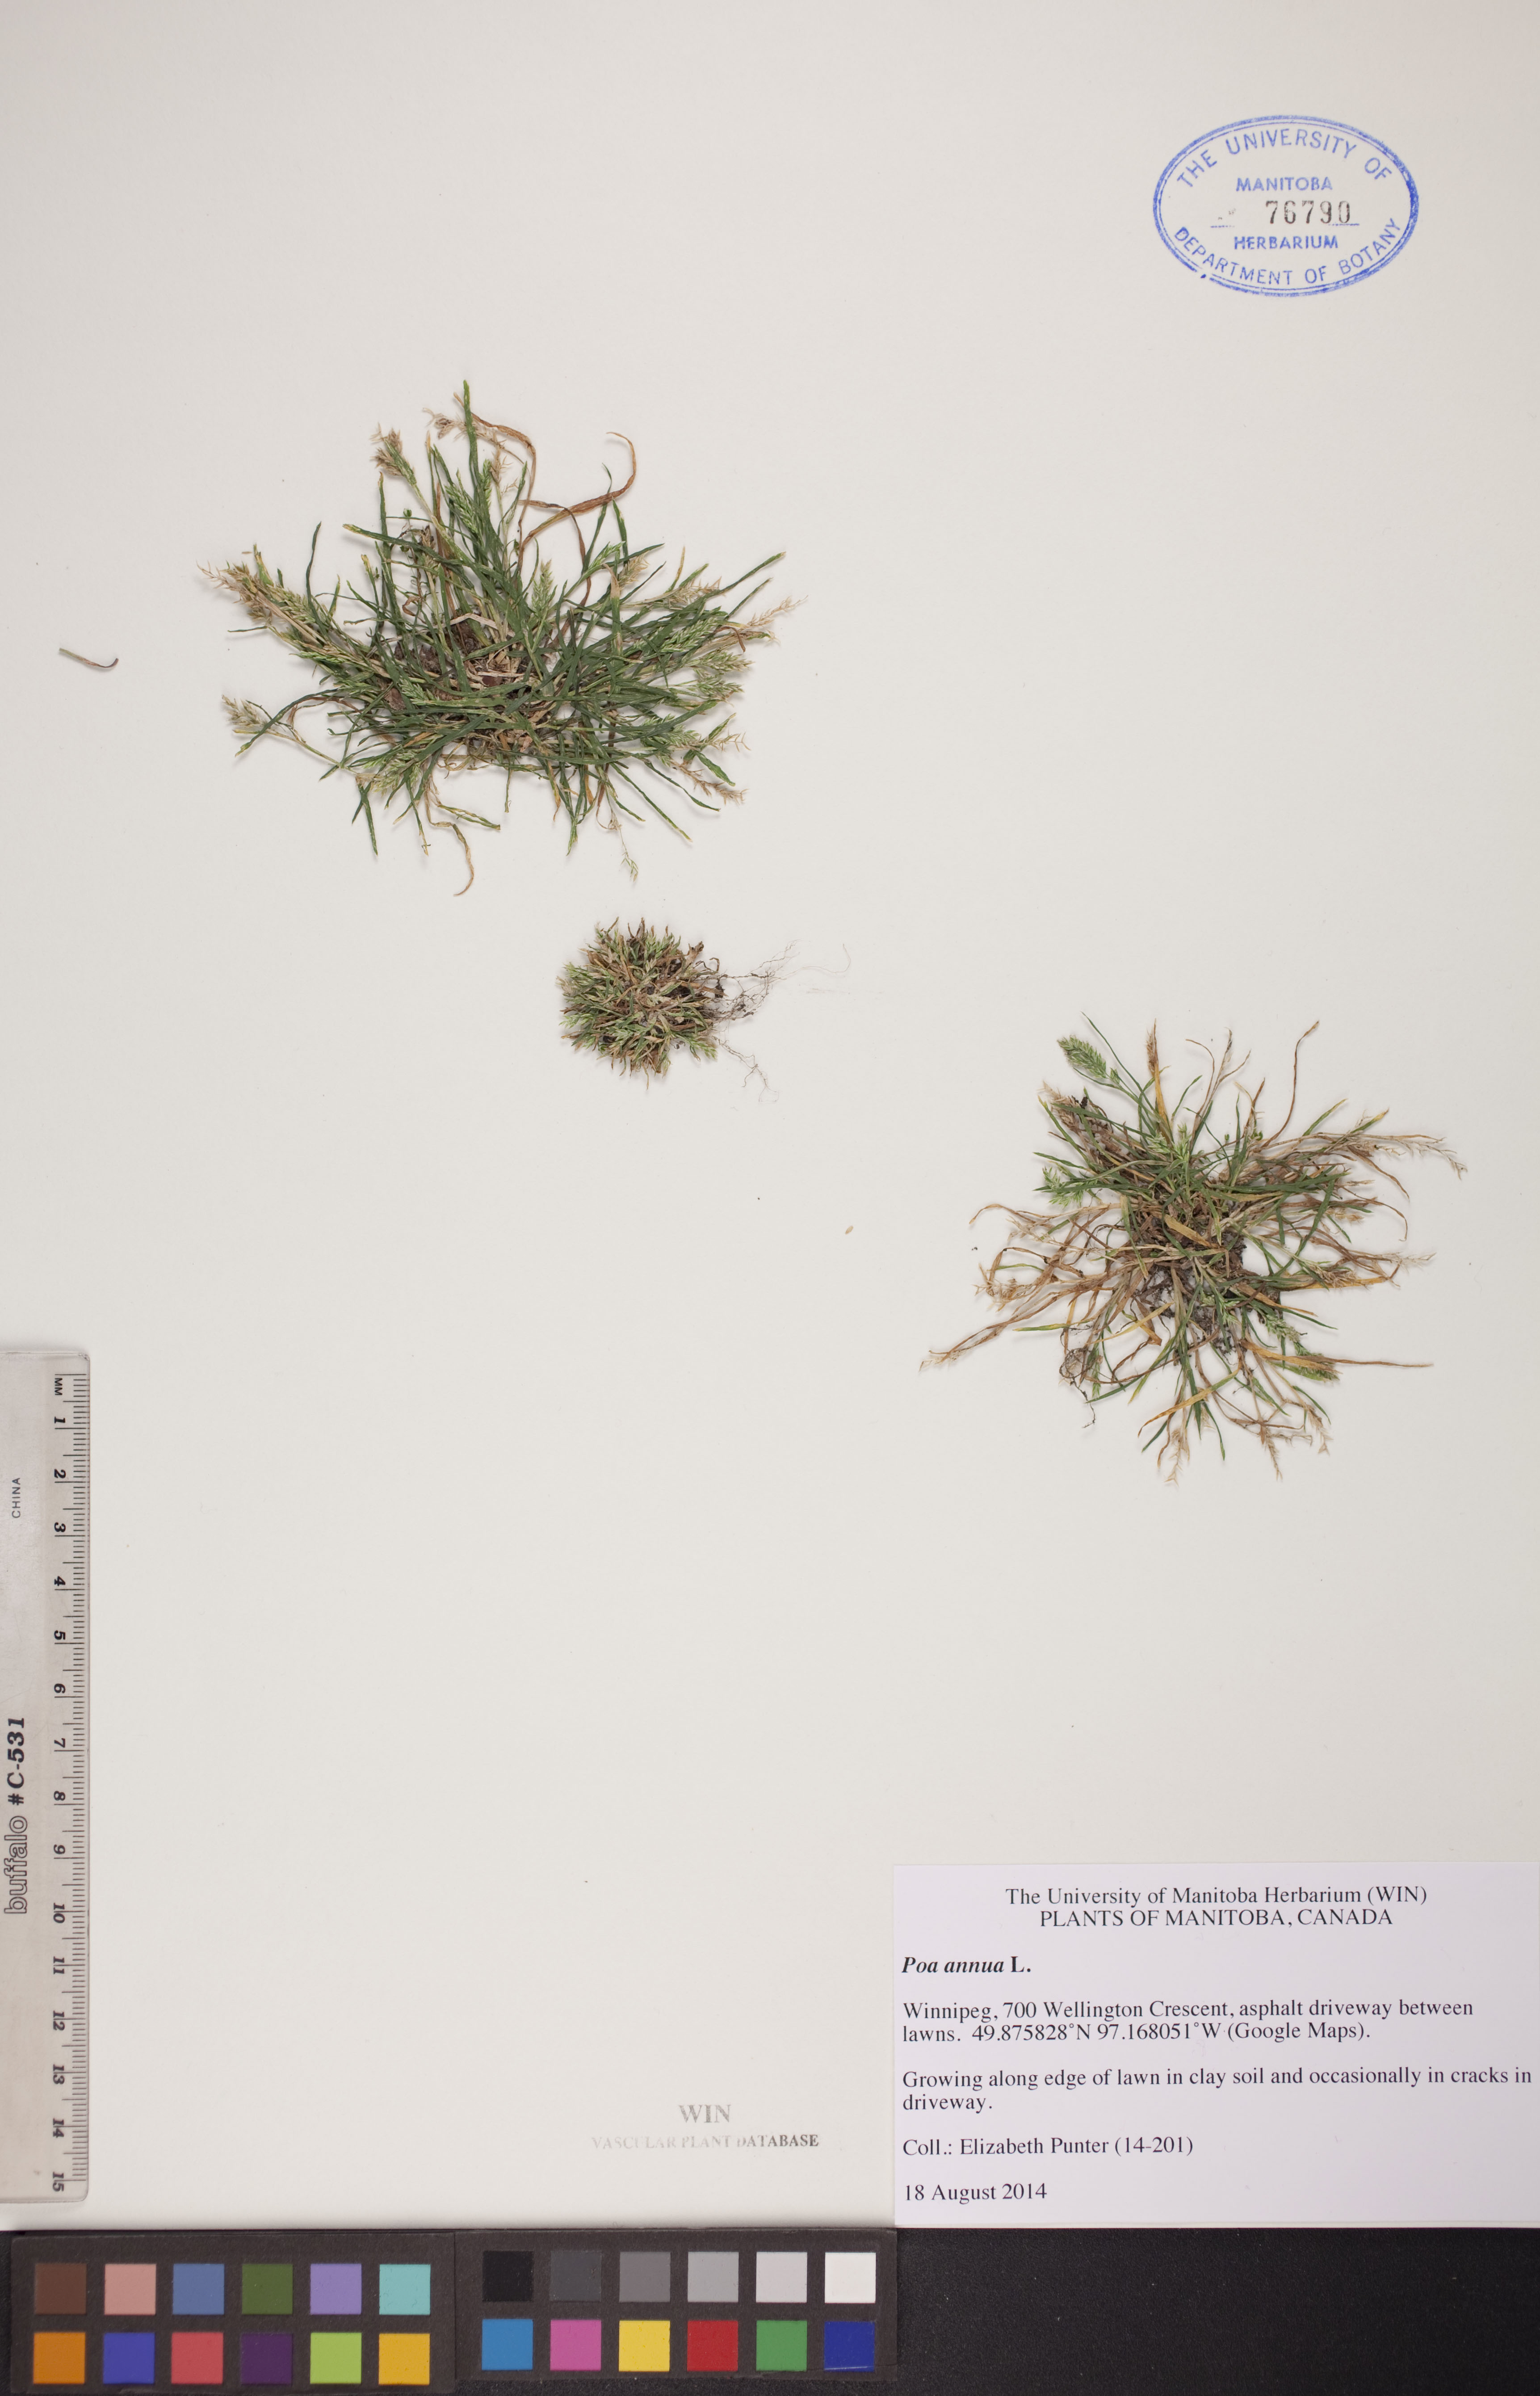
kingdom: Plantae
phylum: Tracheophyta
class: Liliopsida
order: Poales
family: Poaceae
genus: Poa
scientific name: Poa annua
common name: Annual bluegrass
